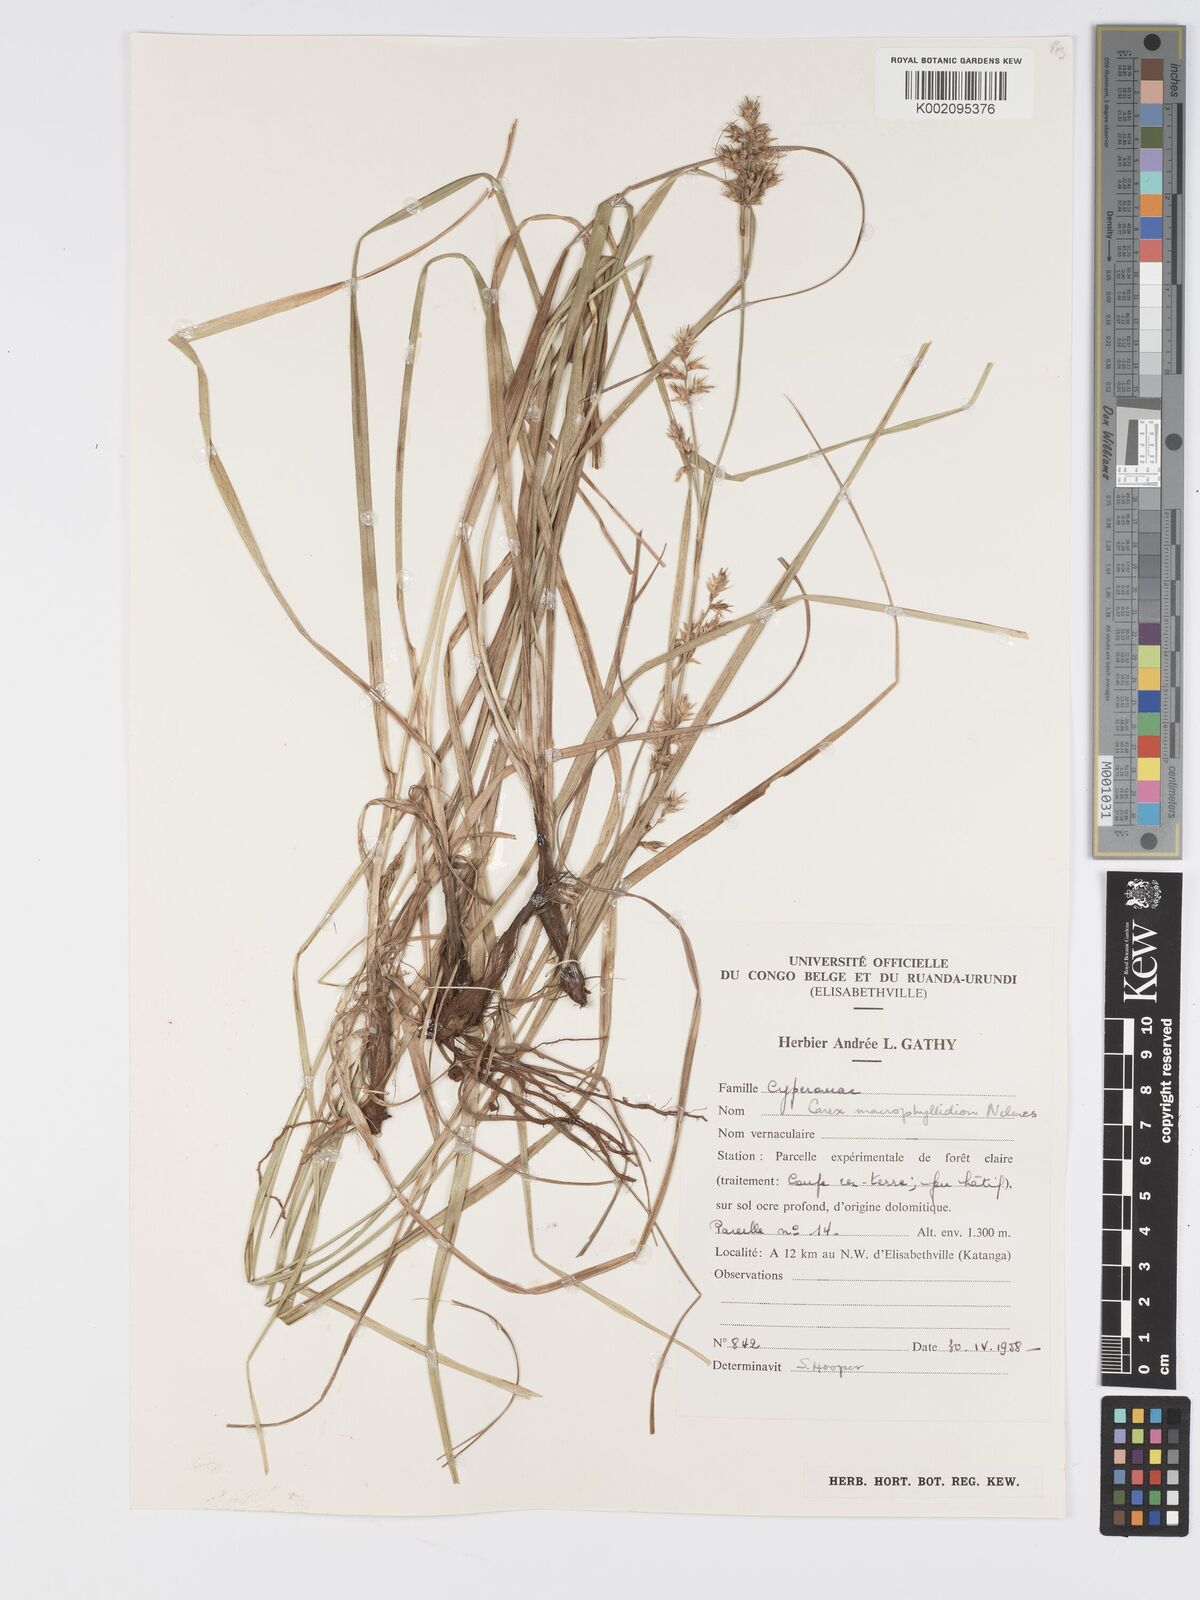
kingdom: Plantae
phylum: Tracheophyta
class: Liliopsida
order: Poales
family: Cyperaceae
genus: Carex
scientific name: Carex macrophyllidion
